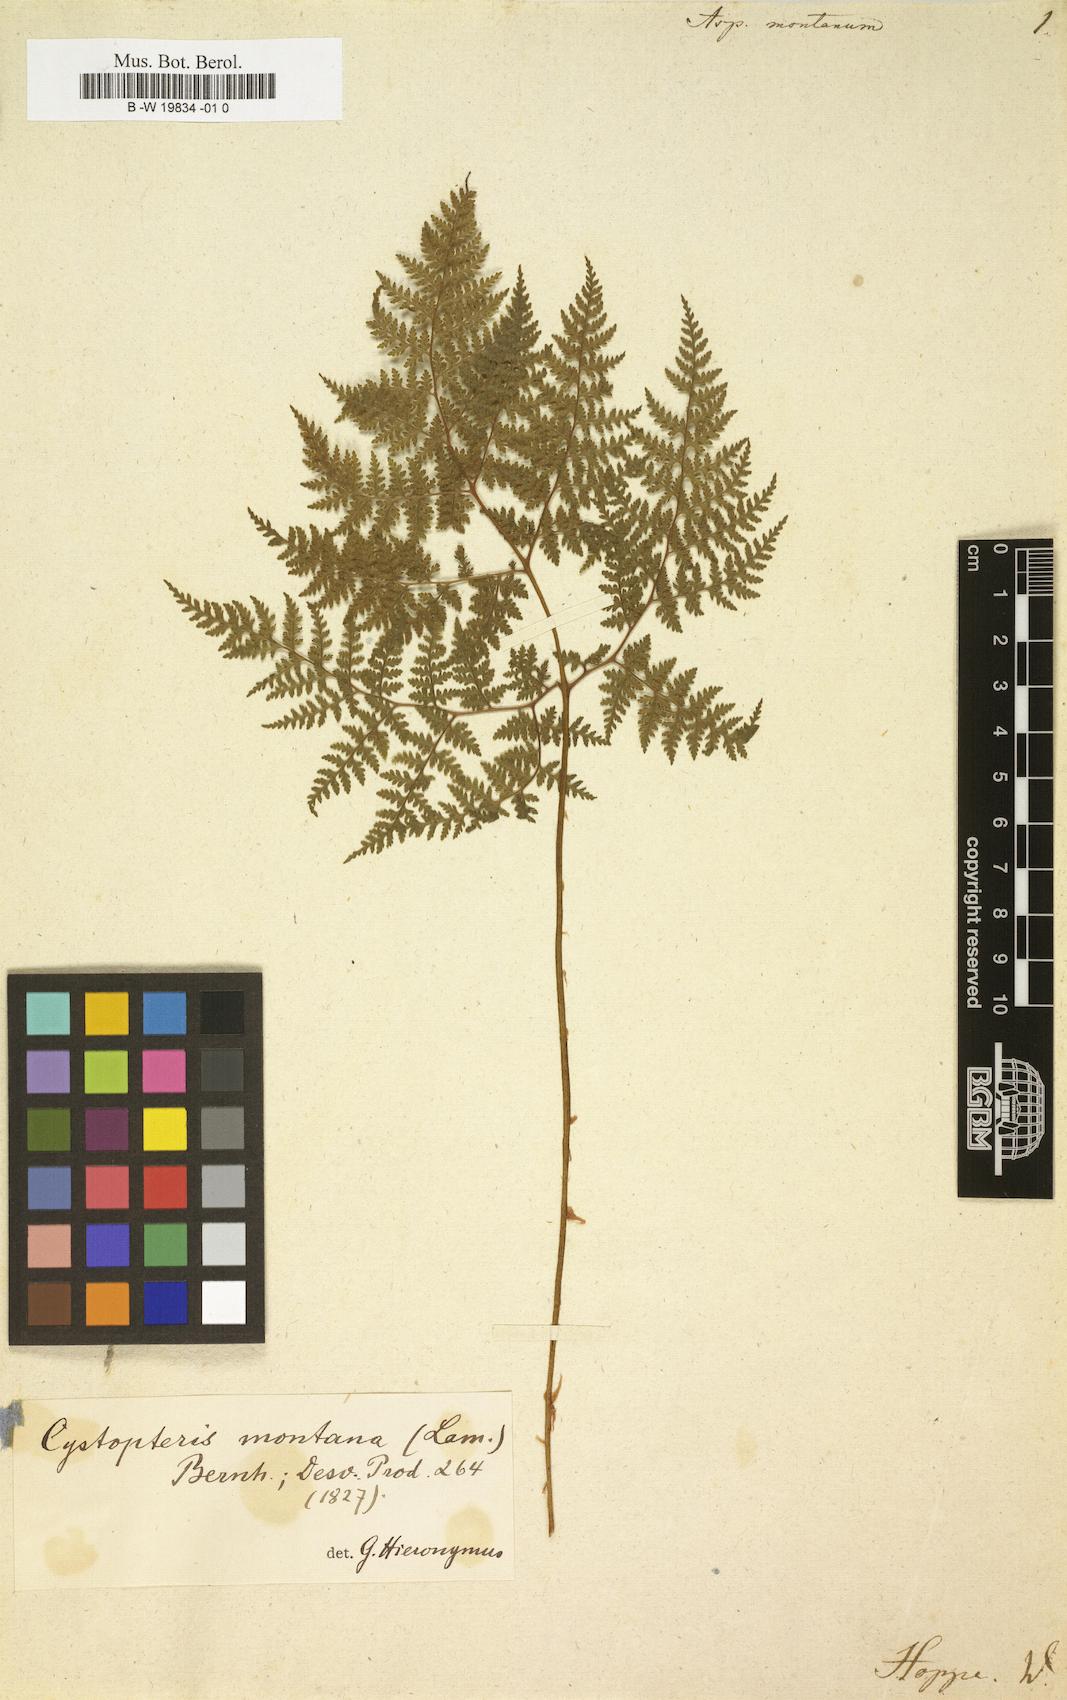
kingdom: Plantae
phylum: Tracheophyta
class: Polypodiopsida
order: Polypodiales
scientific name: Polypodiales
